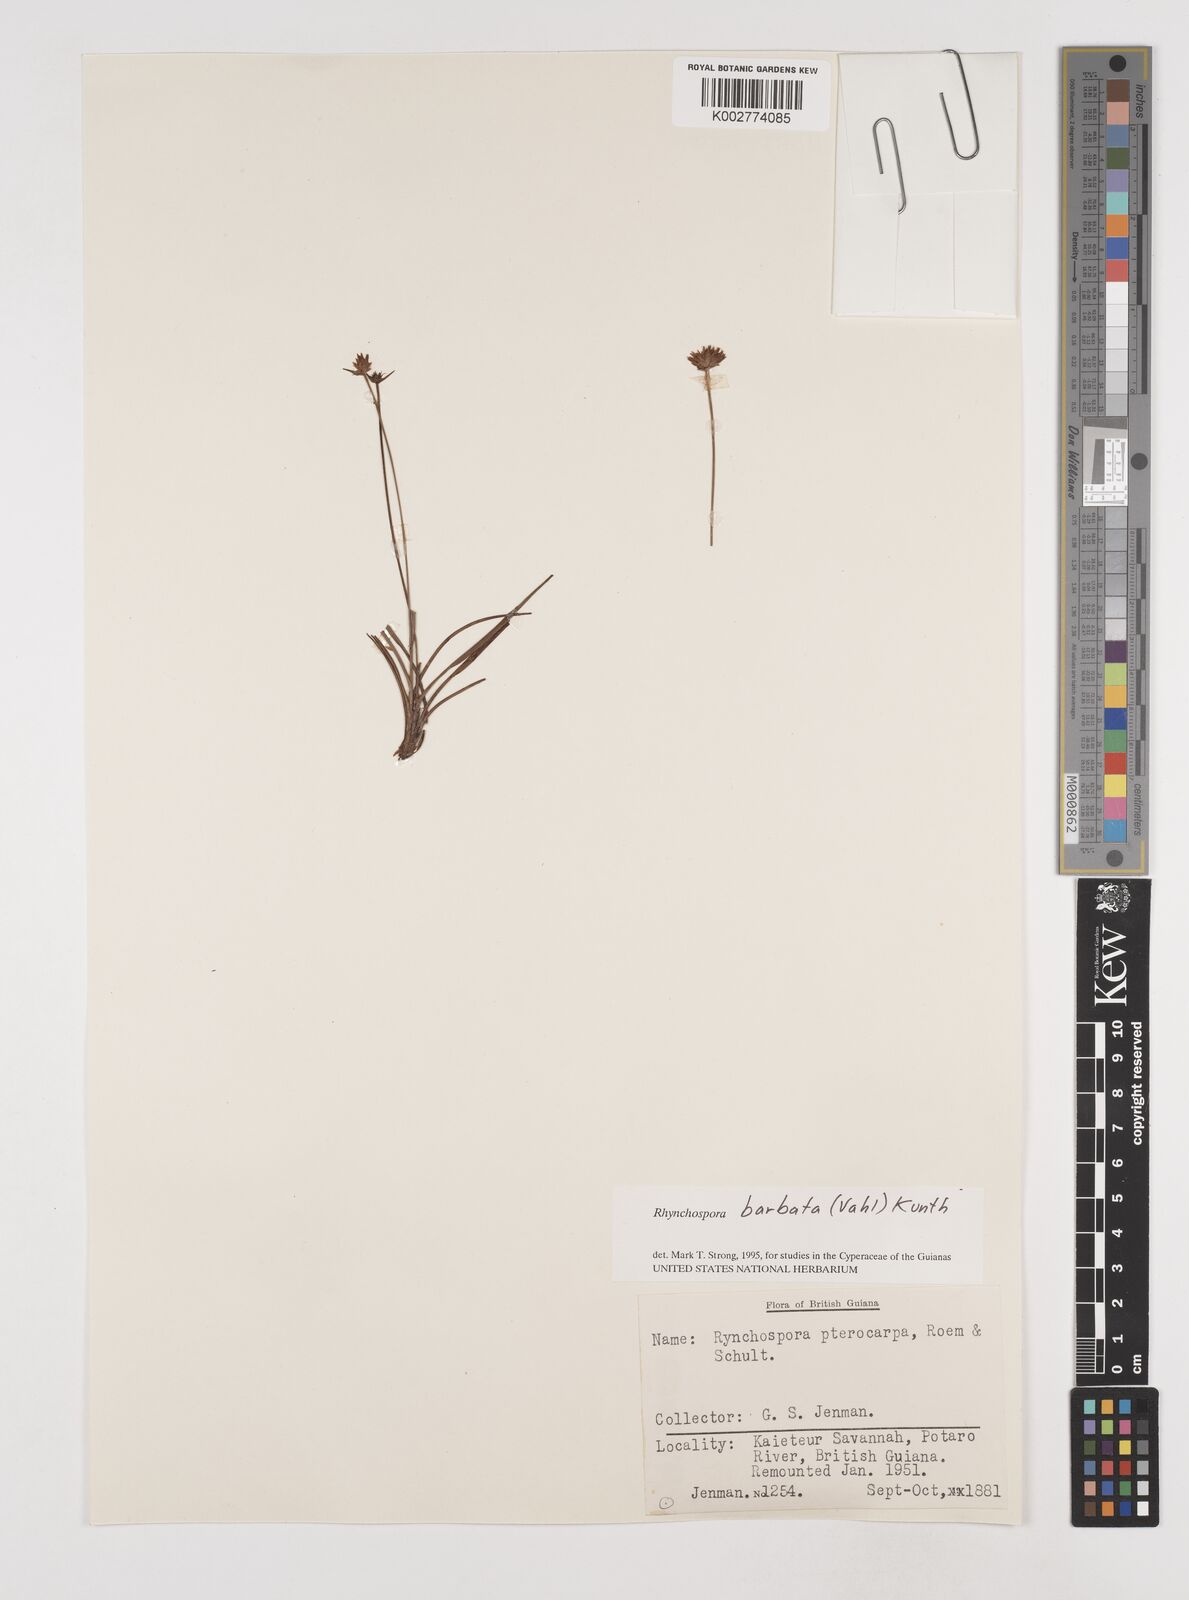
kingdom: Plantae
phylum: Tracheophyta
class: Liliopsida
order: Poales
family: Cyperaceae
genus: Rhynchospora
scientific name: Rhynchospora barbata
